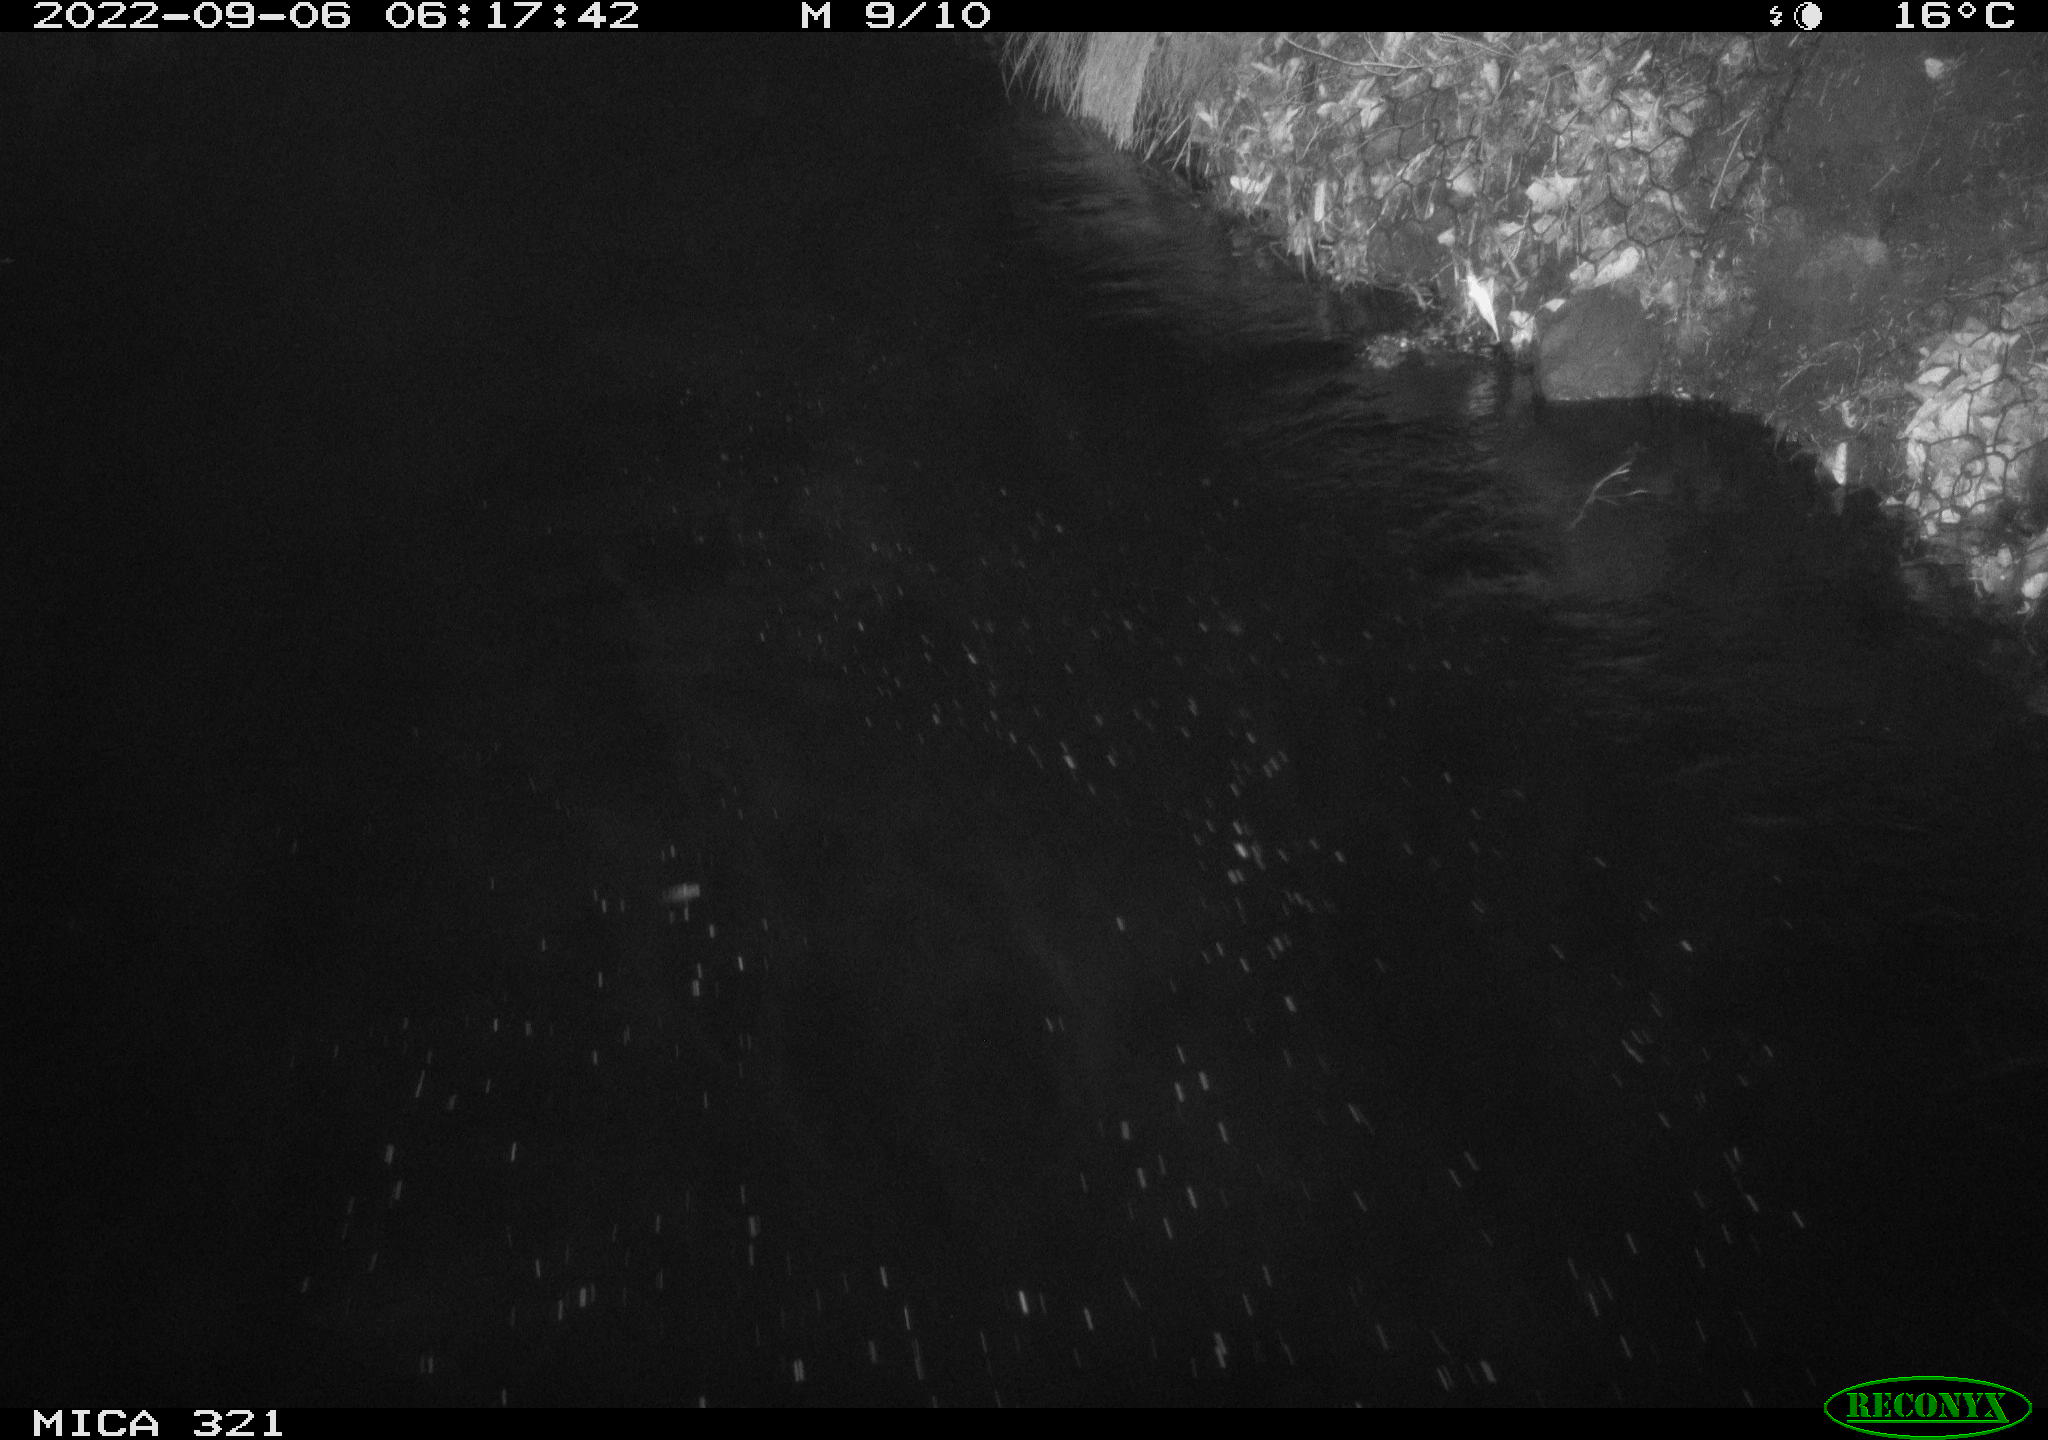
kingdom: Animalia
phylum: Chordata
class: Aves
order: Anseriformes
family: Anatidae
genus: Anas
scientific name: Anas platyrhynchos
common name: Mallard
